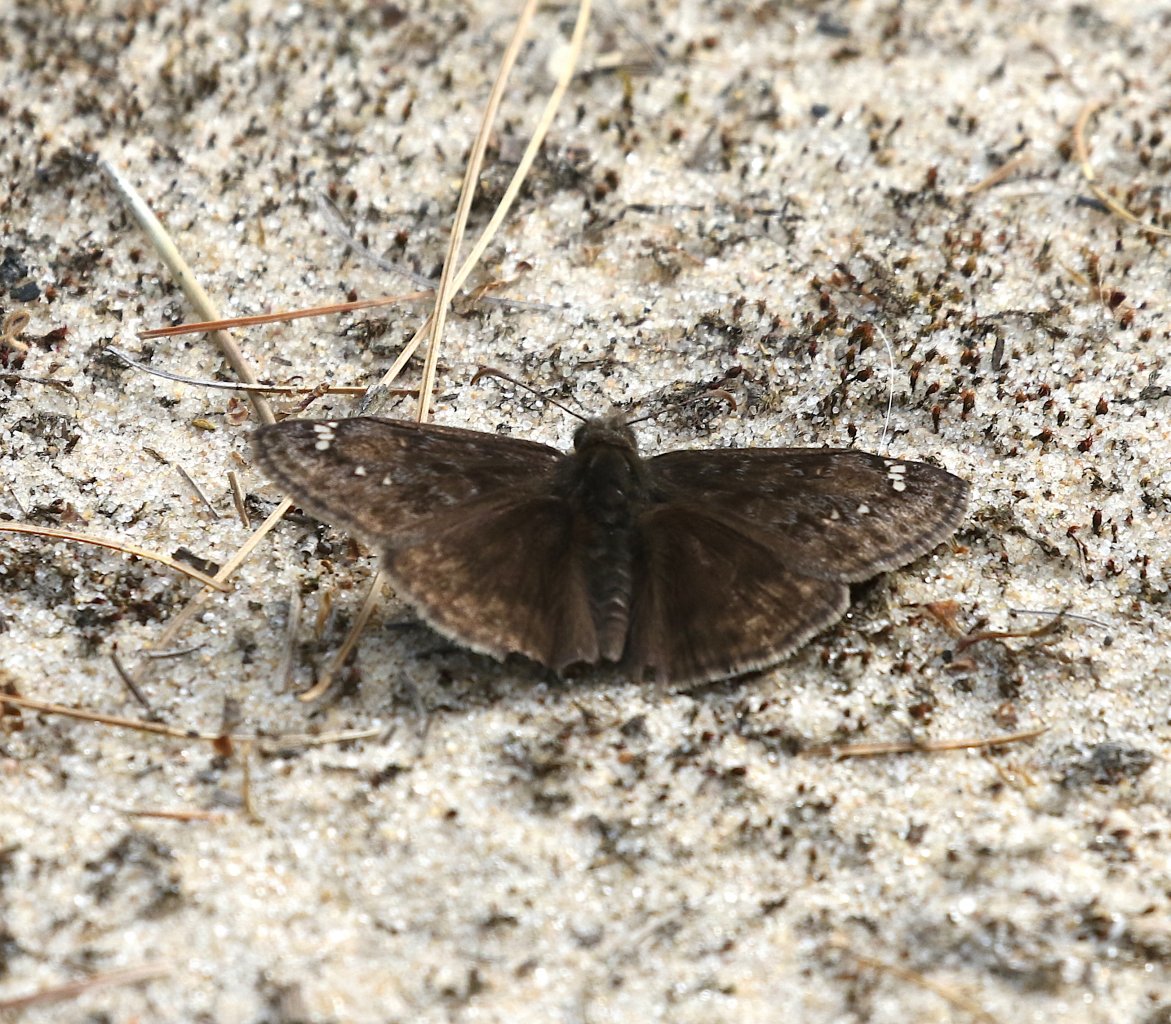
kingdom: Animalia
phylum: Arthropoda
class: Insecta
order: Lepidoptera
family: Hesperiidae
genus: Gesta
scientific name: Gesta
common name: Juvenal's Duskywing
